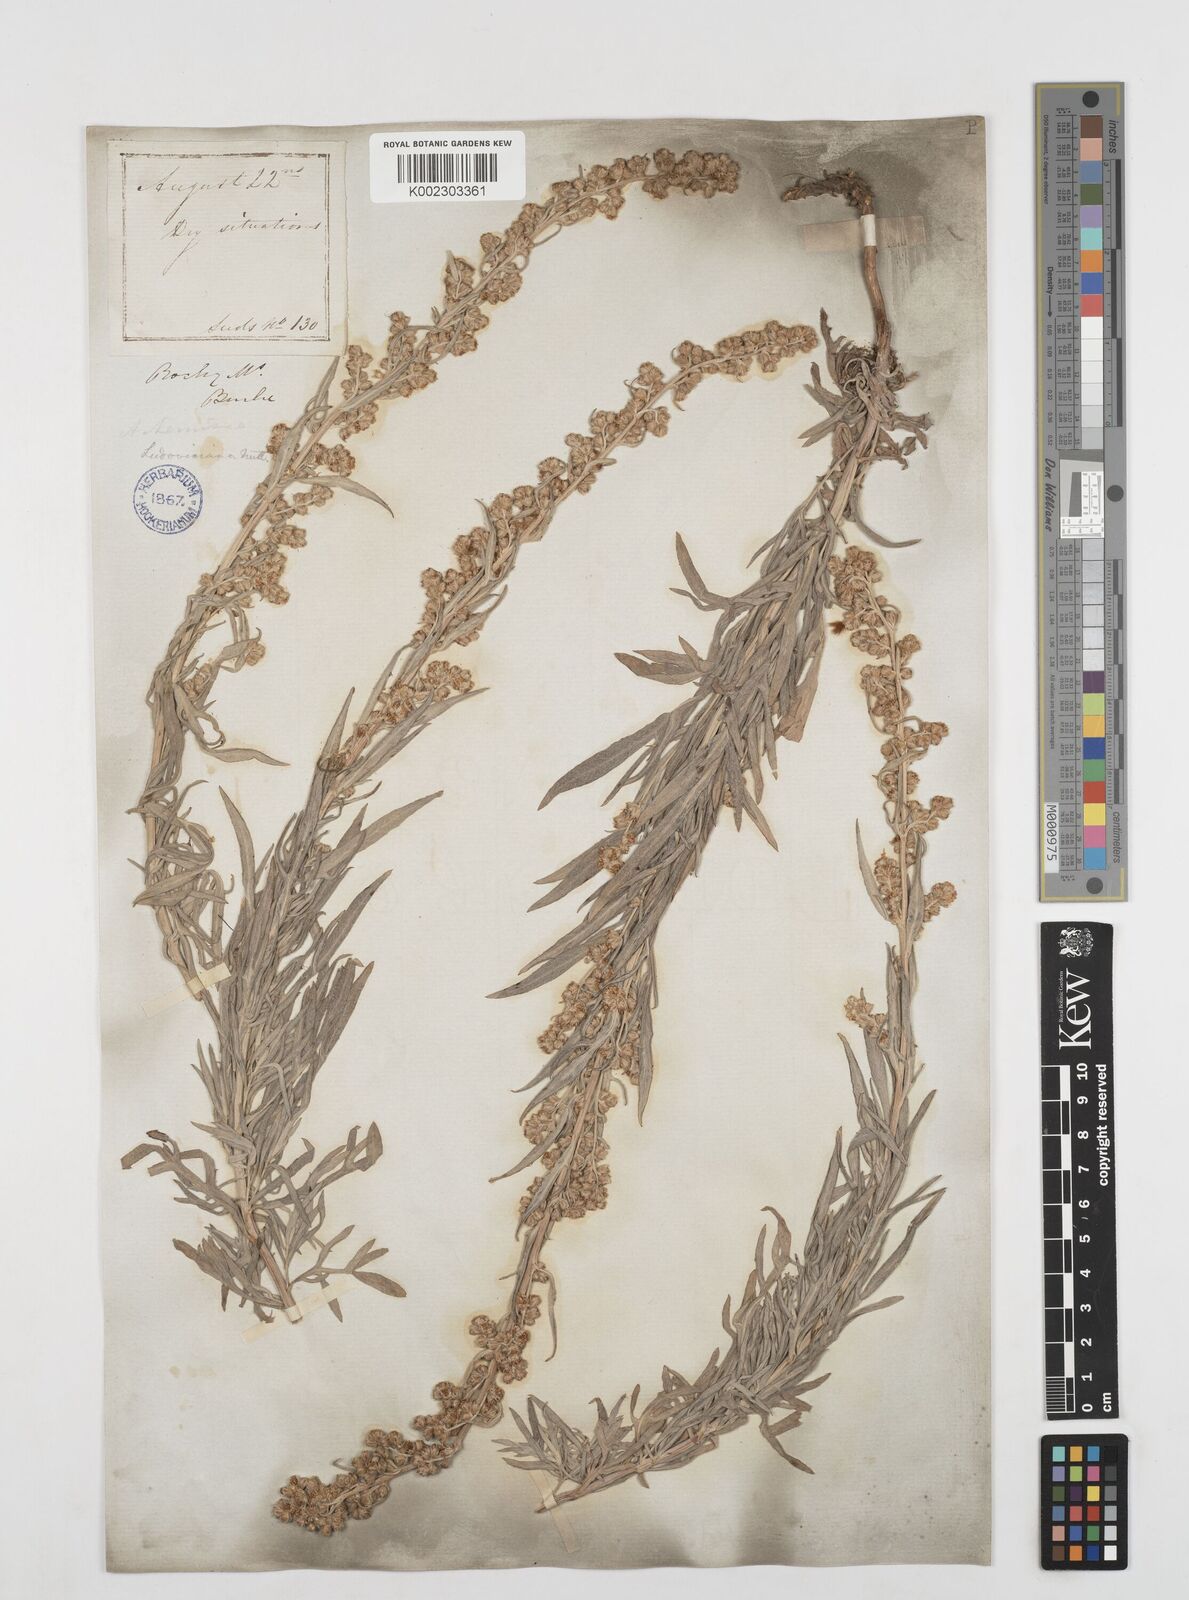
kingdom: Plantae
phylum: Tracheophyta
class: Magnoliopsida
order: Asterales
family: Asteraceae
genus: Artemisia
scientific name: Artemisia
